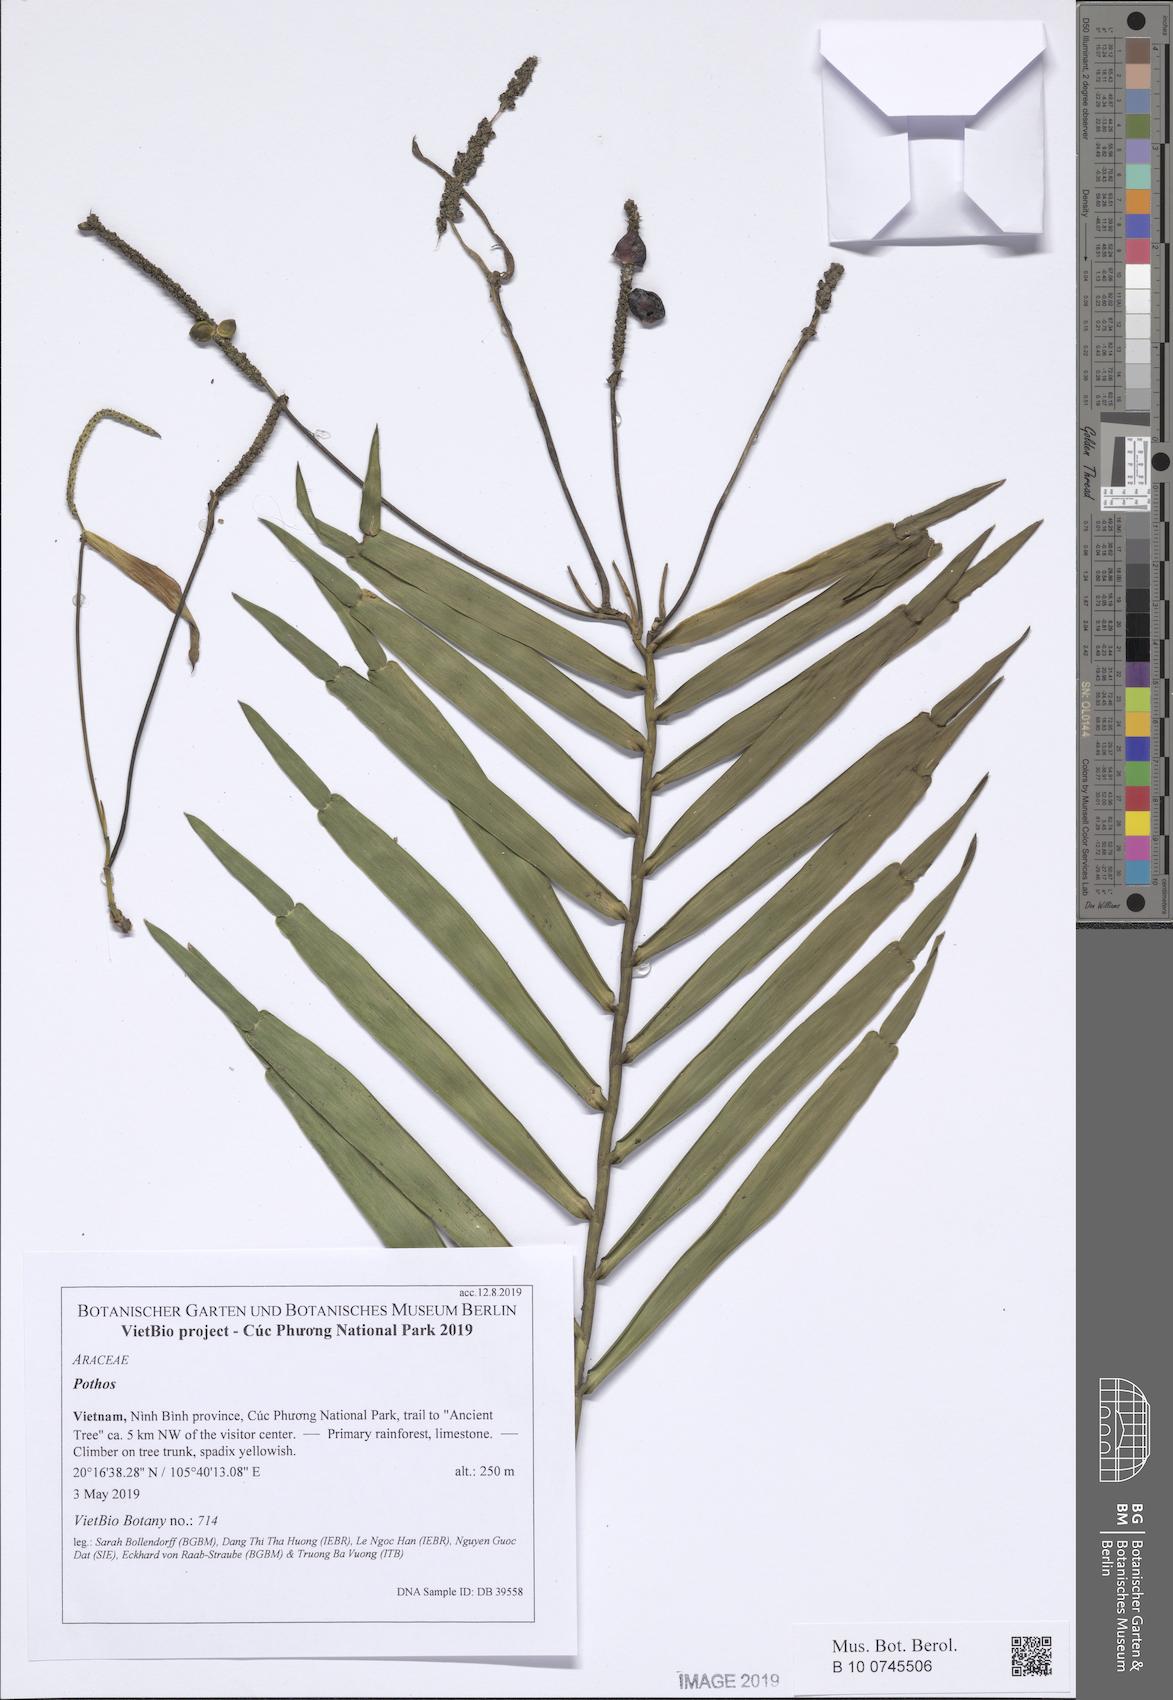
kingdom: Plantae
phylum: Tracheophyta
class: Liliopsida
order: Alismatales
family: Araceae
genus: Pothos
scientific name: Pothos repens
